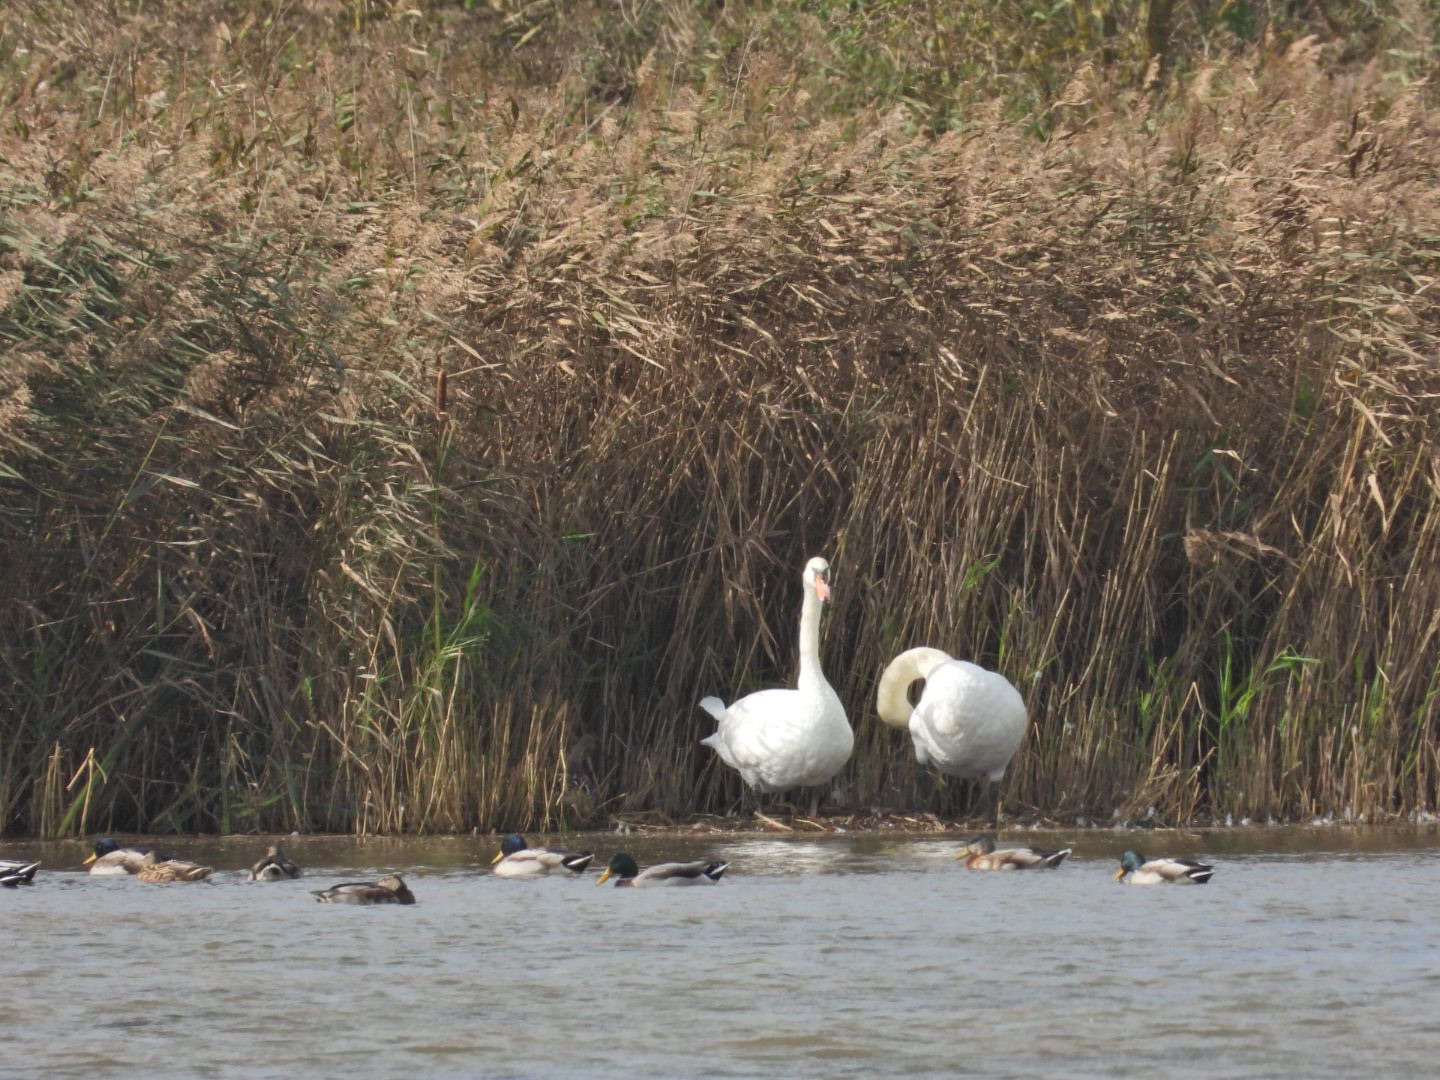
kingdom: Animalia
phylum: Chordata
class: Aves
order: Anseriformes
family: Anatidae
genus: Cygnus
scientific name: Cygnus olor
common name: Knopsvane
